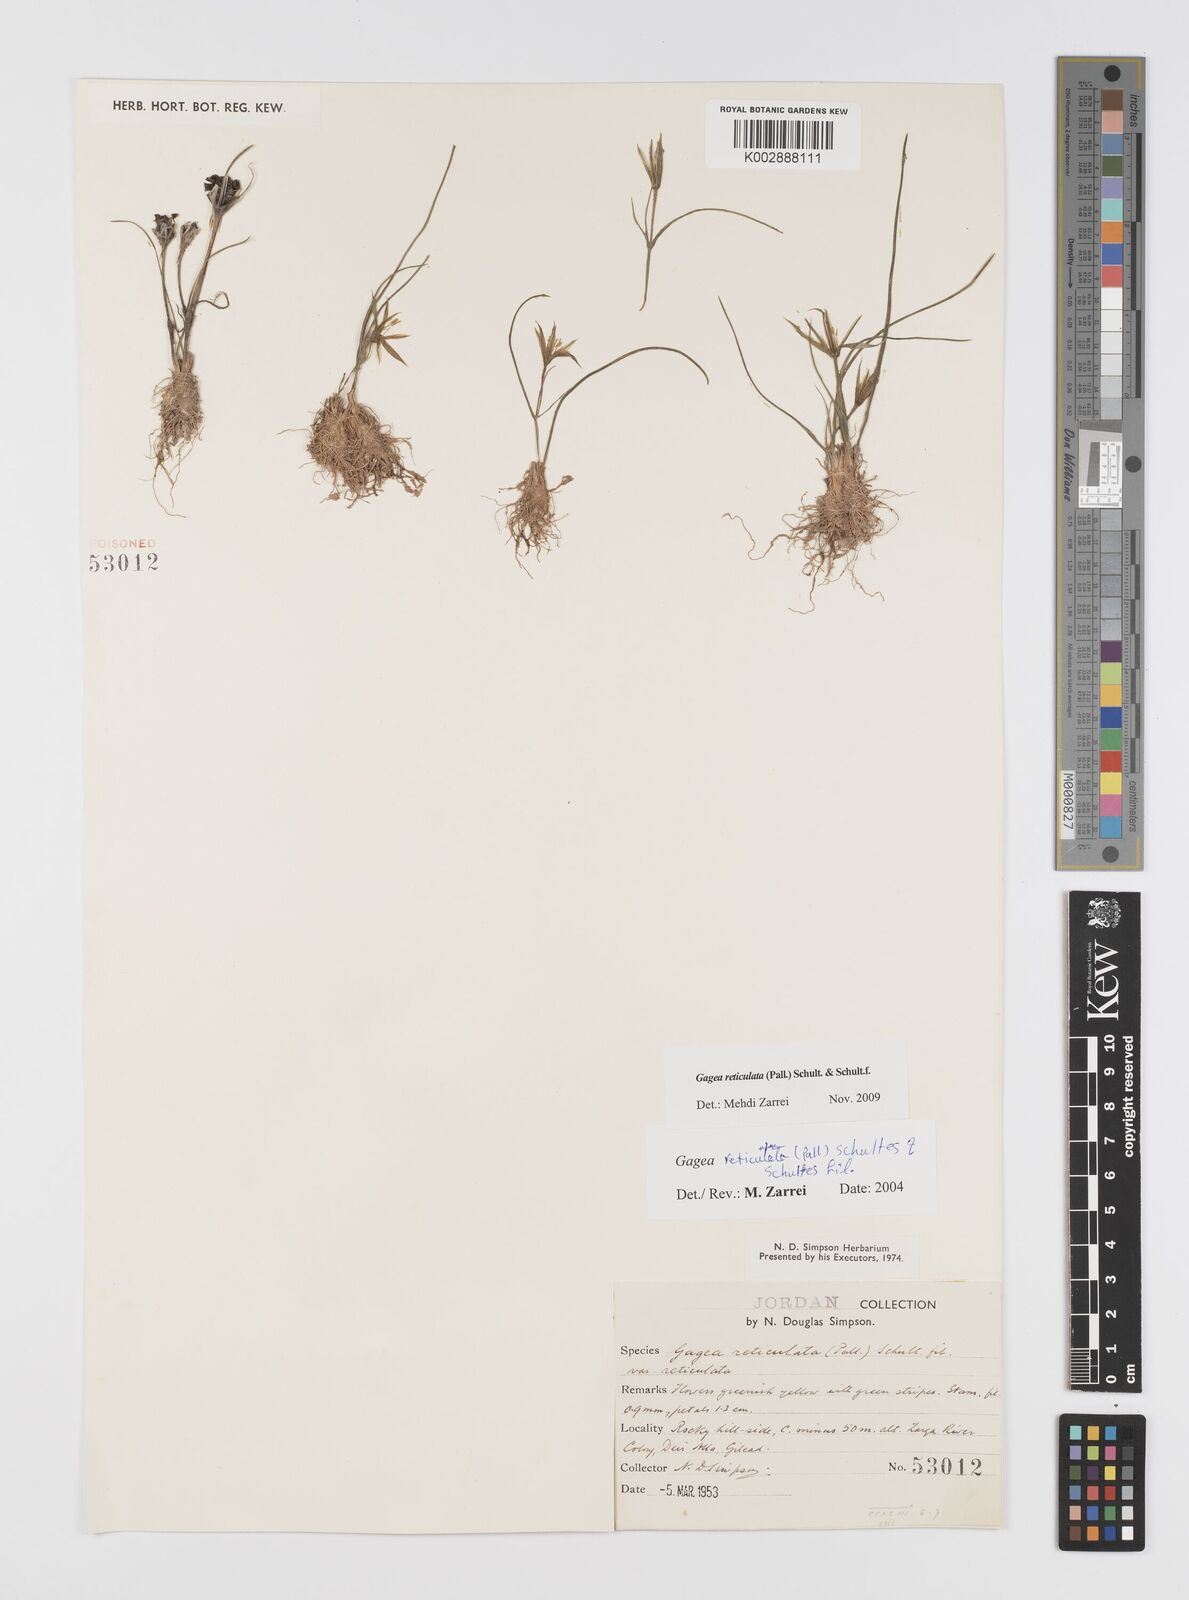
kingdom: Plantae
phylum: Tracheophyta
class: Liliopsida
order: Liliales
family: Liliaceae
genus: Gagea
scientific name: Gagea reticulata
